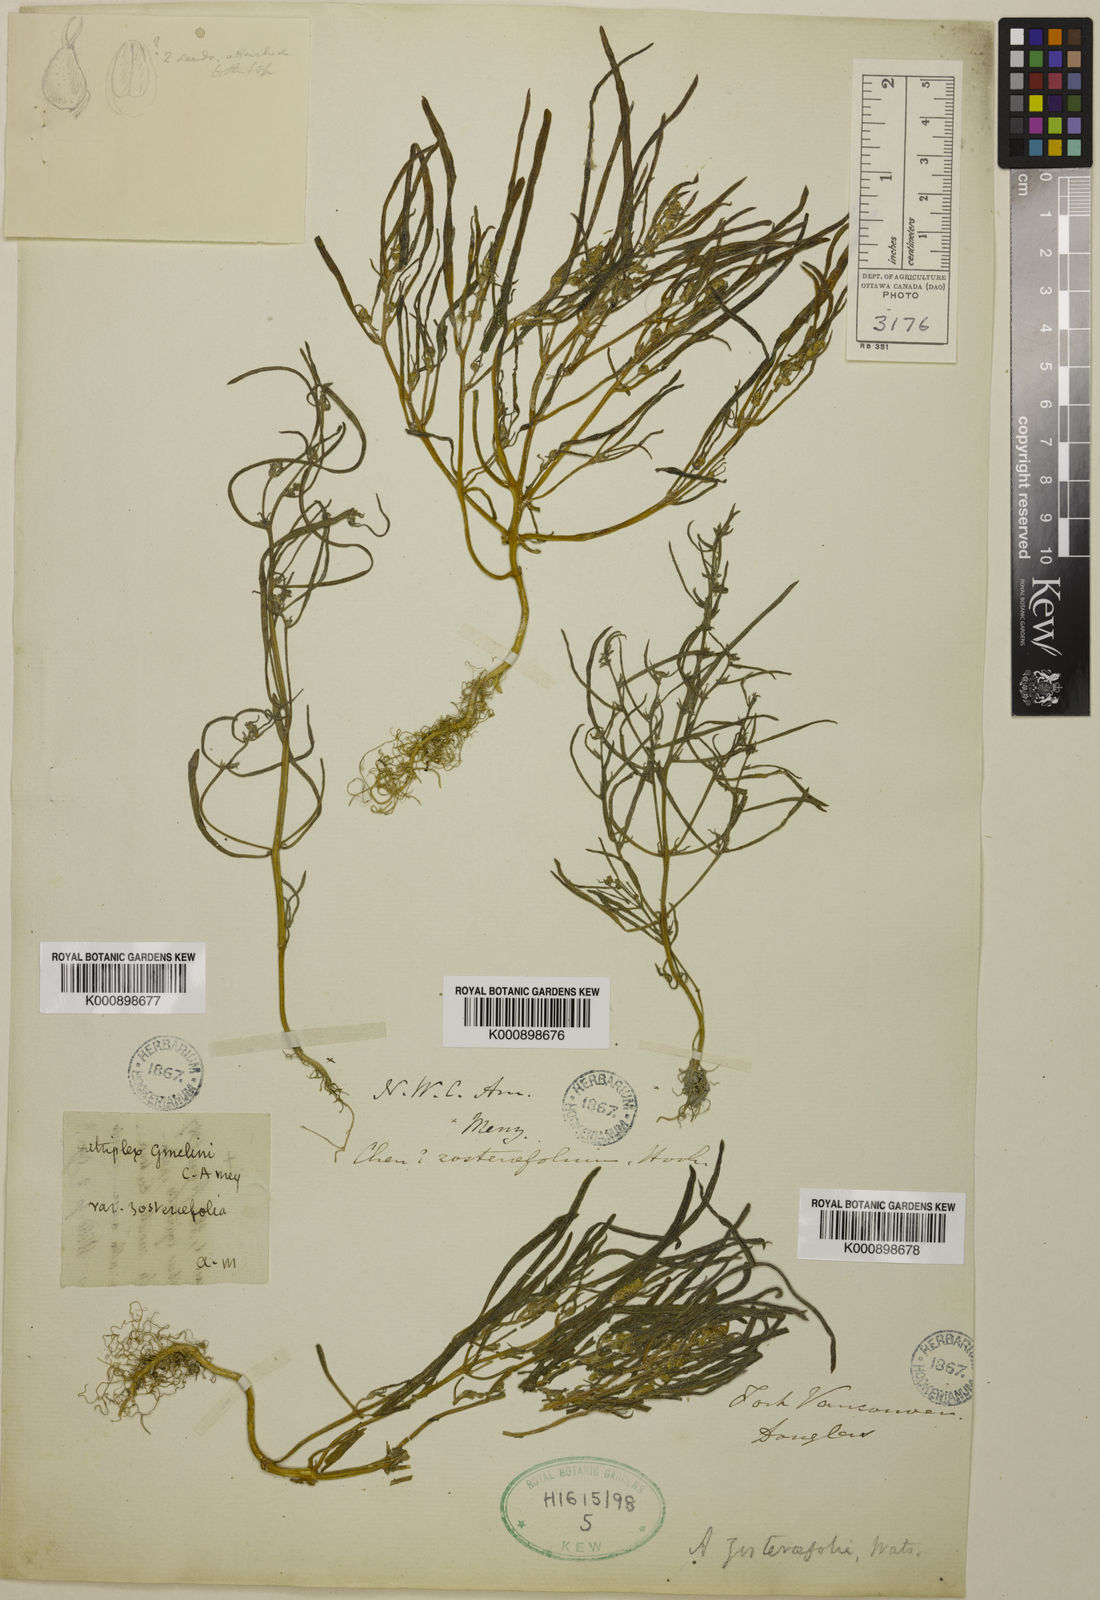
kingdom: Plantae
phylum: Tracheophyta
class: Magnoliopsida
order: Caryophyllales
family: Amaranthaceae
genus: Atriplex
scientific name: Atriplex gmelinii
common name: Gmelin's orach
